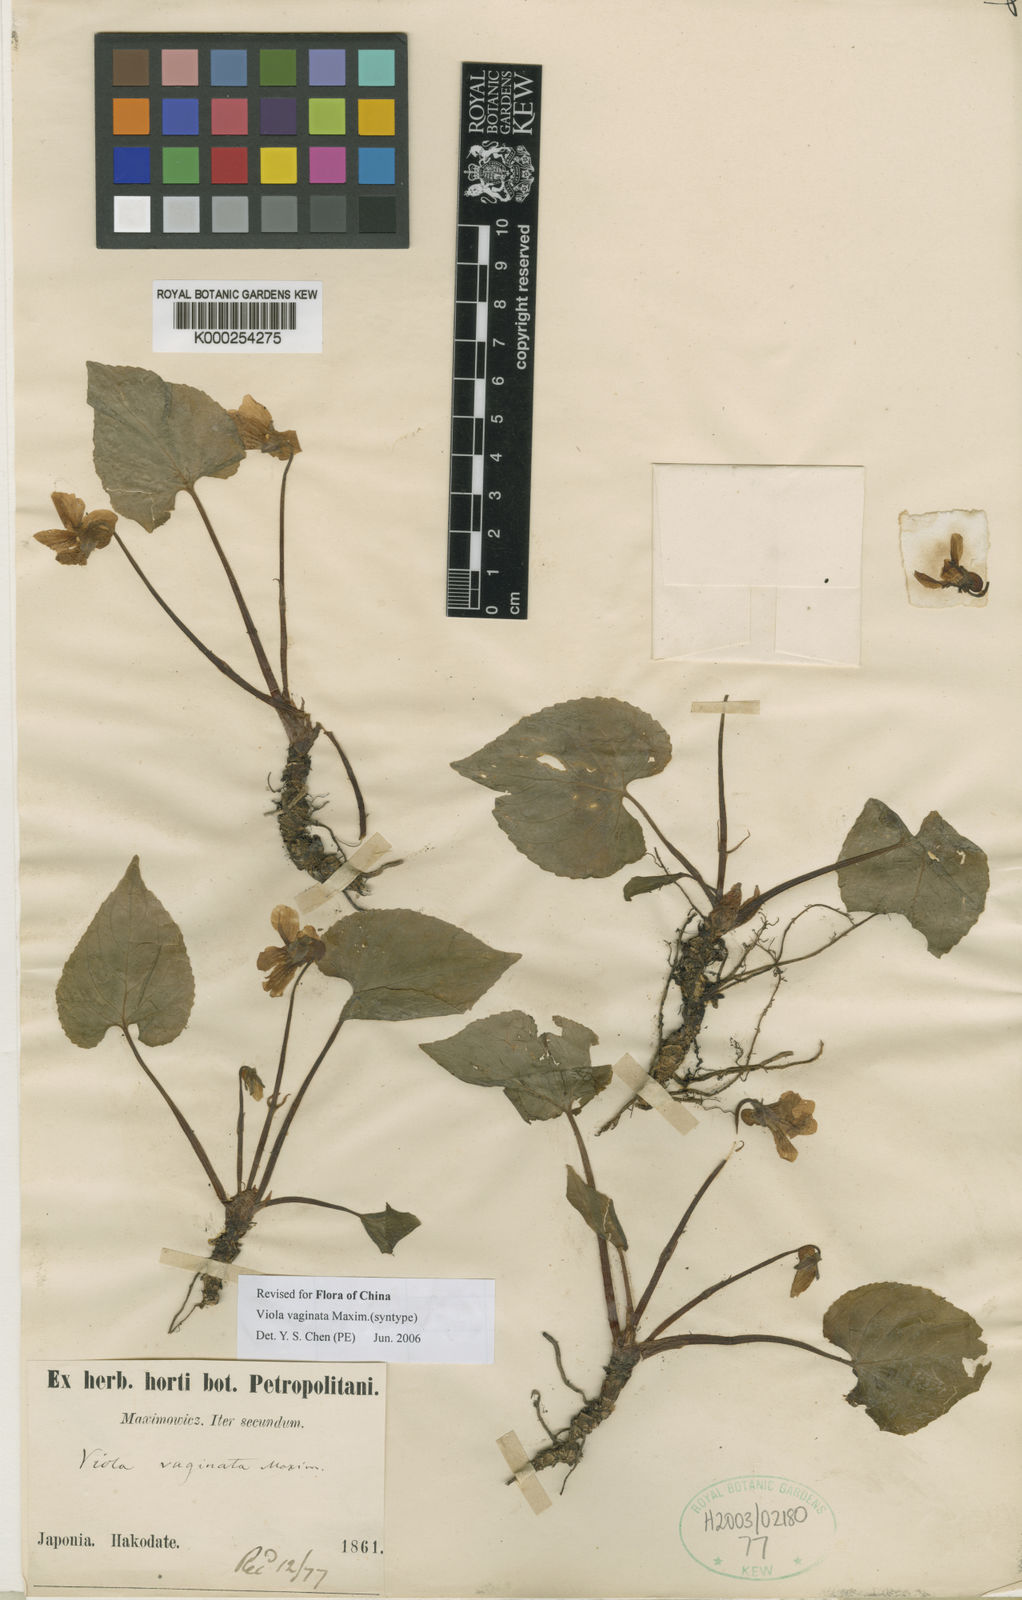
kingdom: Plantae
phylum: Tracheophyta
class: Magnoliopsida
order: Malpighiales
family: Violaceae
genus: Viola
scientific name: Viola vaginata
